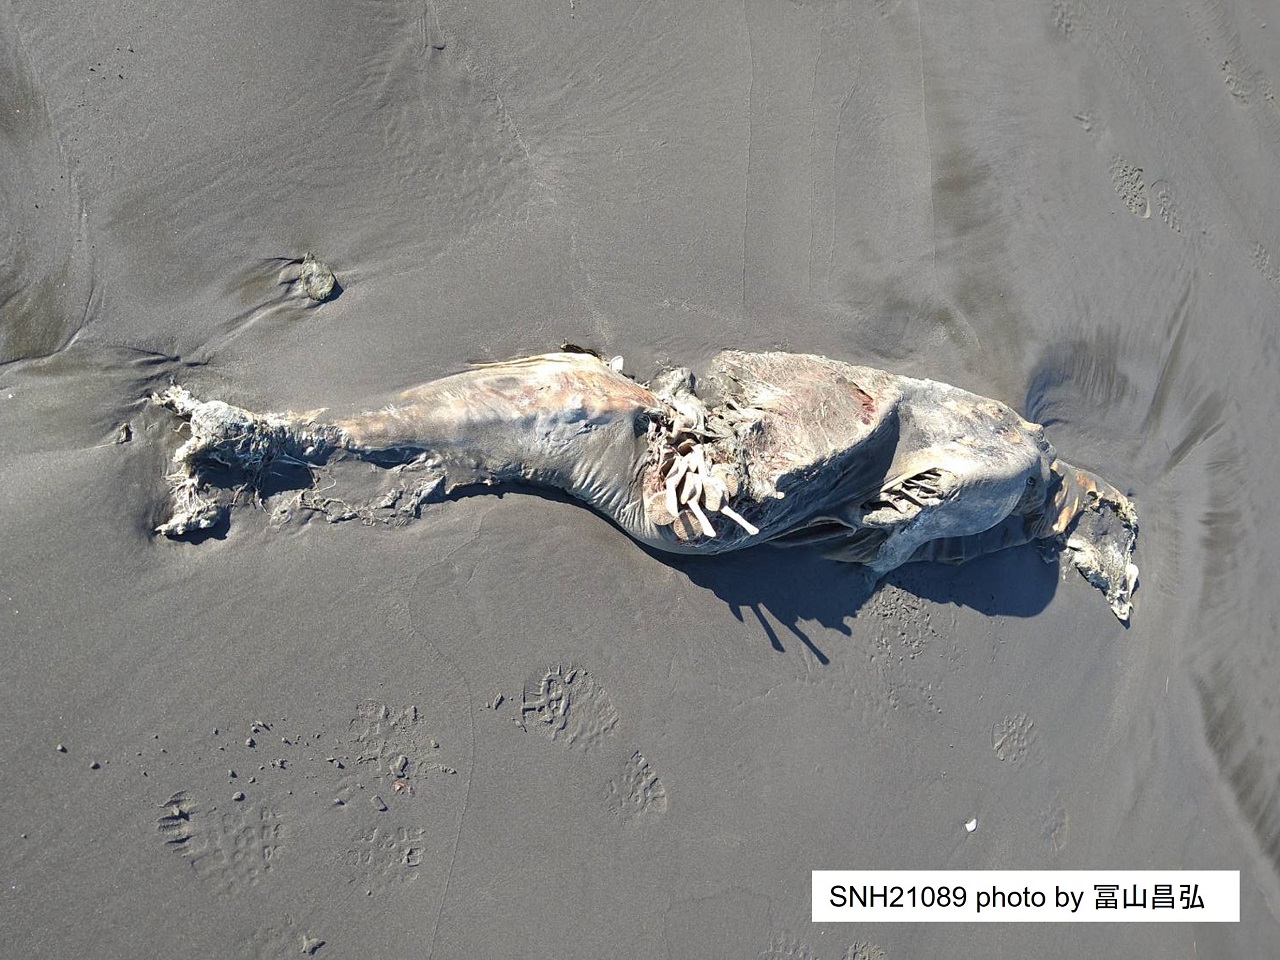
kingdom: Animalia
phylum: Chordata
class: Mammalia
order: Cetacea
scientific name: Cetacea
